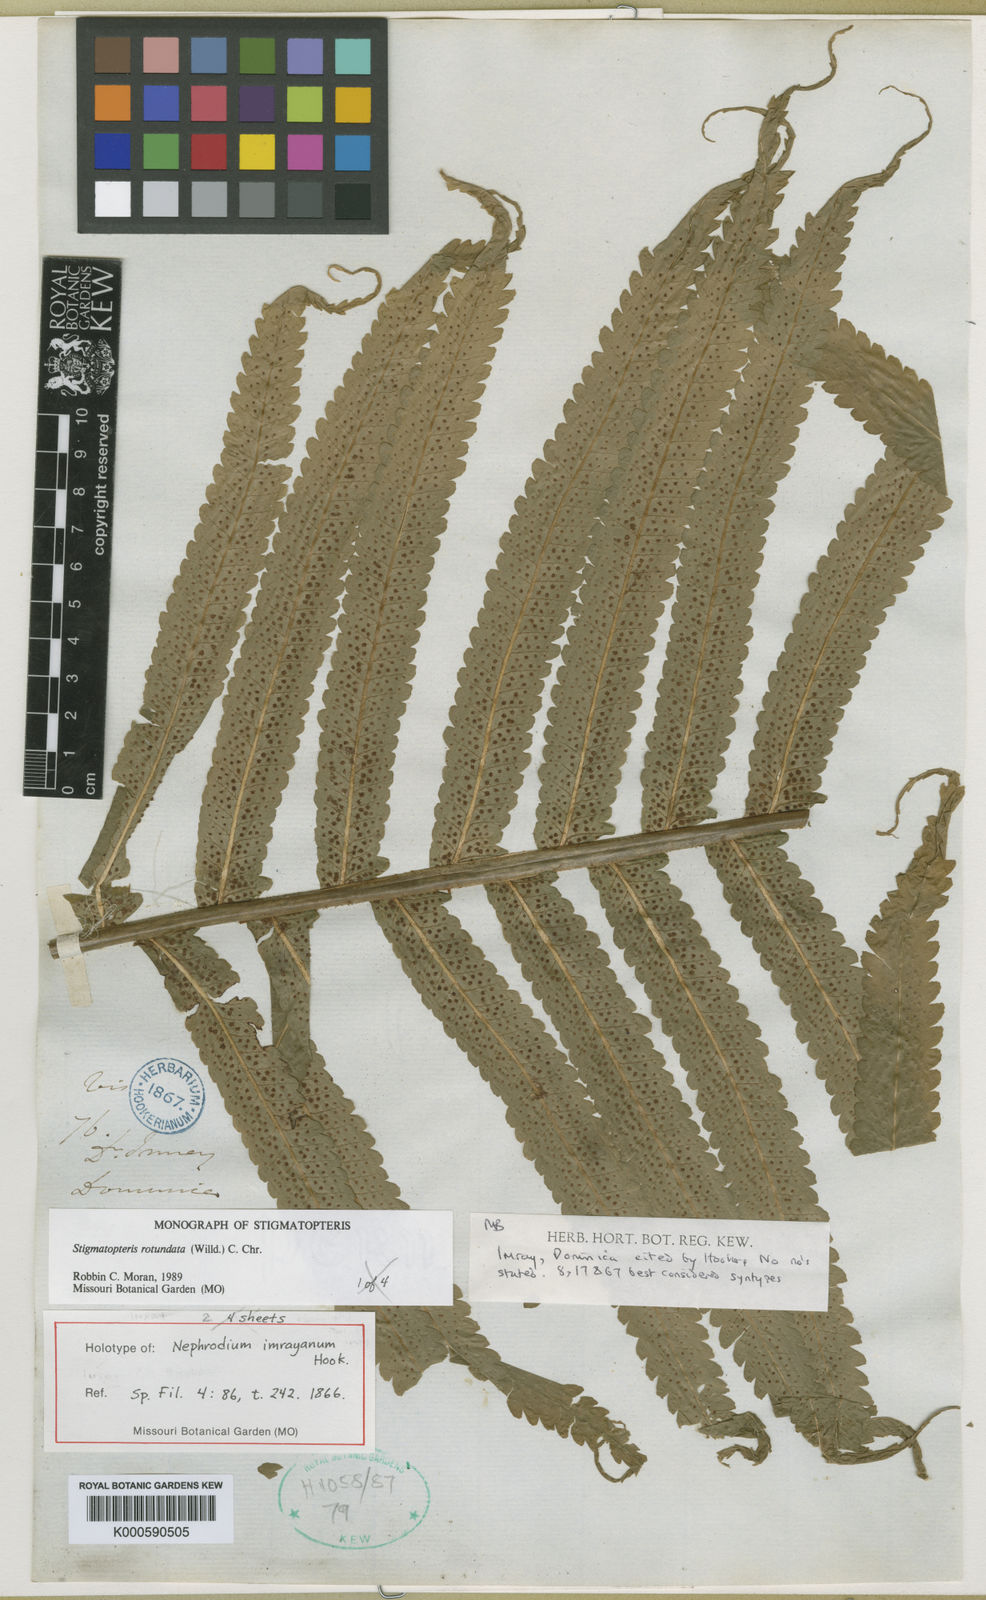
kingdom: Plantae
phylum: Tracheophyta
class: Polypodiopsida
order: Polypodiales
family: Dryopteridaceae
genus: Stigmatopteris
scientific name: Stigmatopteris rotundata
